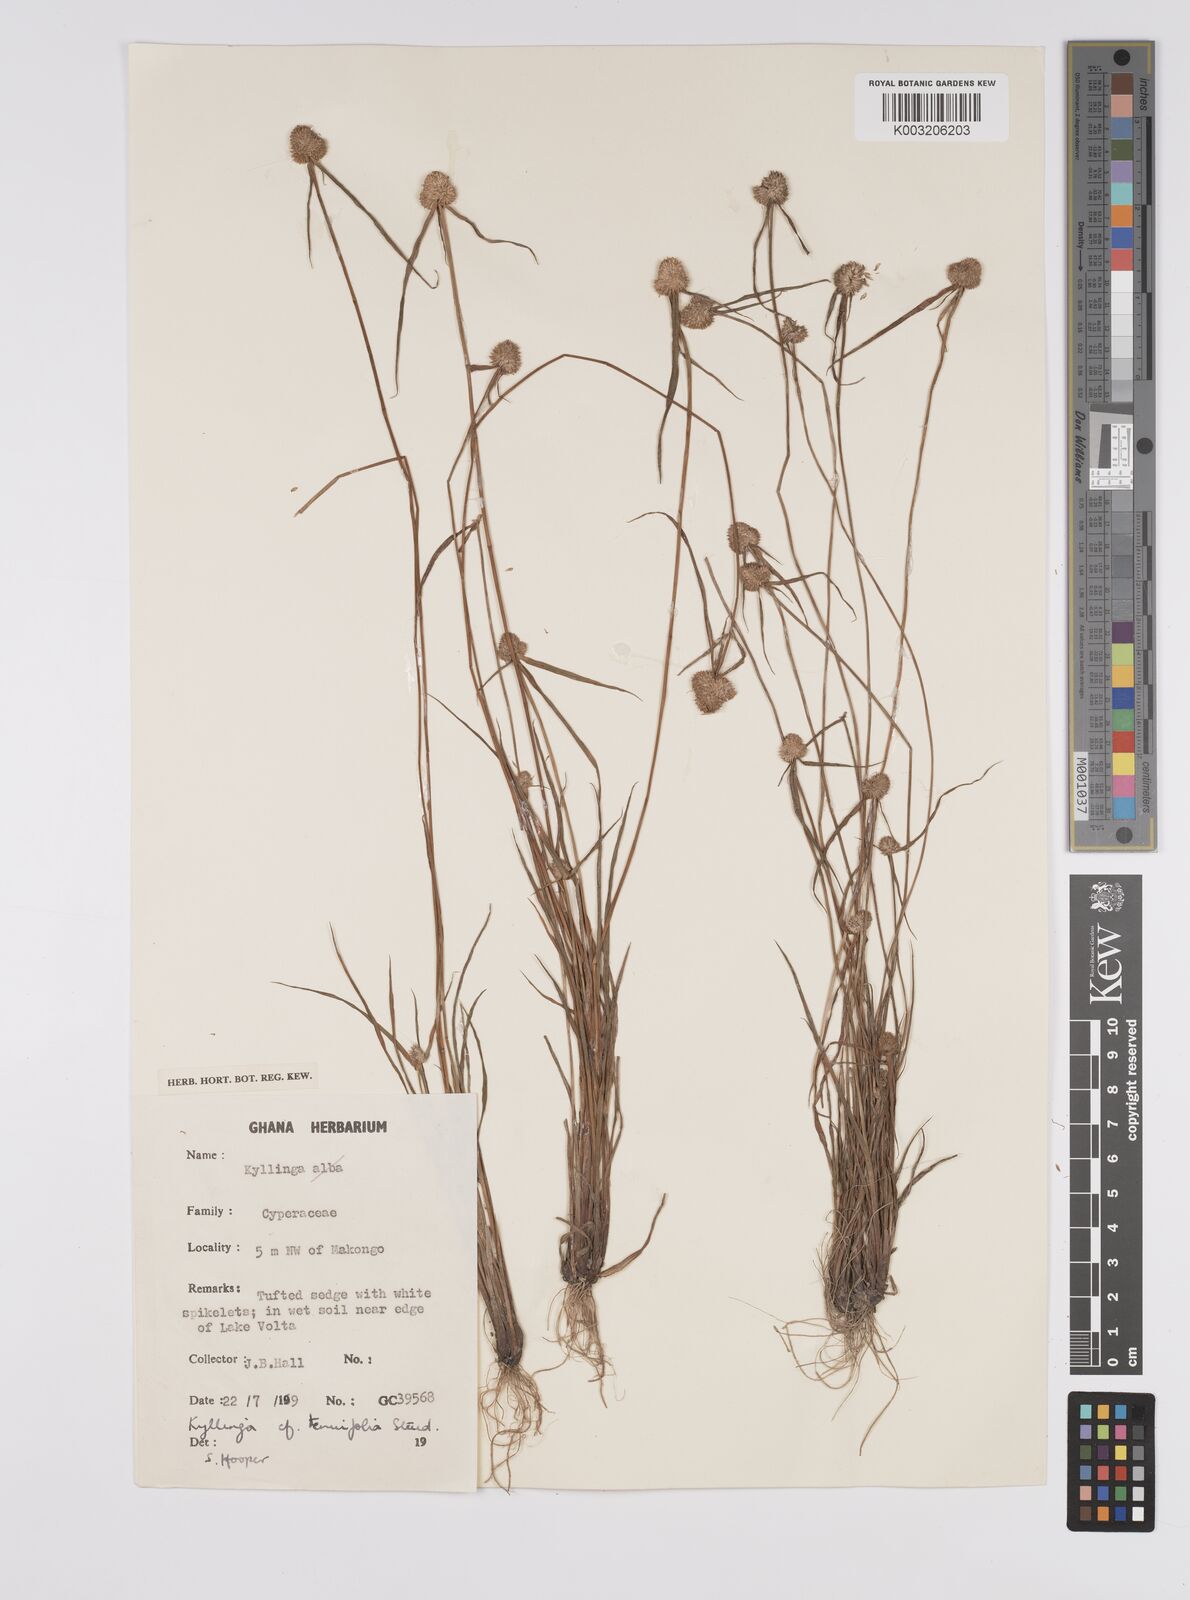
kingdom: Plantae
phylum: Tracheophyta
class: Liliopsida
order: Poales
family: Cyperaceae
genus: Cyperus
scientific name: Cyperus
